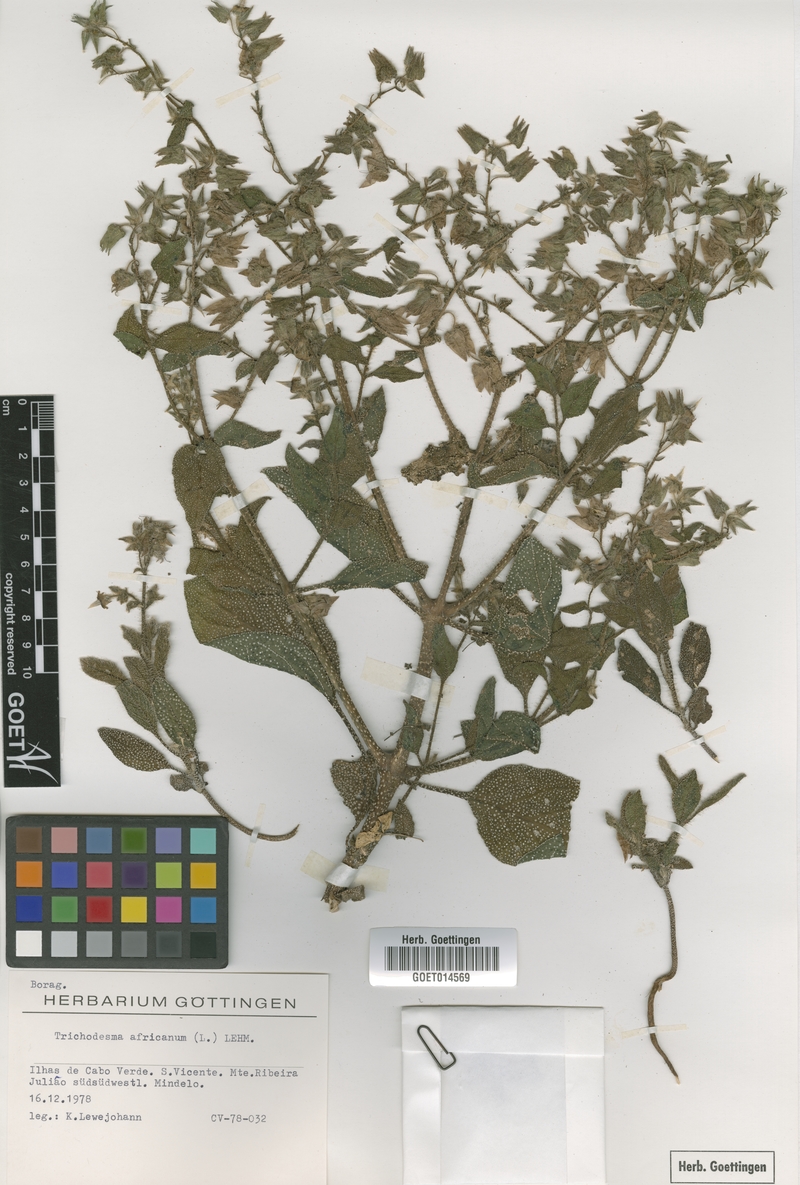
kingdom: Plantae
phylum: Tracheophyta
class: Magnoliopsida
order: Boraginales
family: Boraginaceae
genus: Trichodesma
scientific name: Trichodesma africanum
